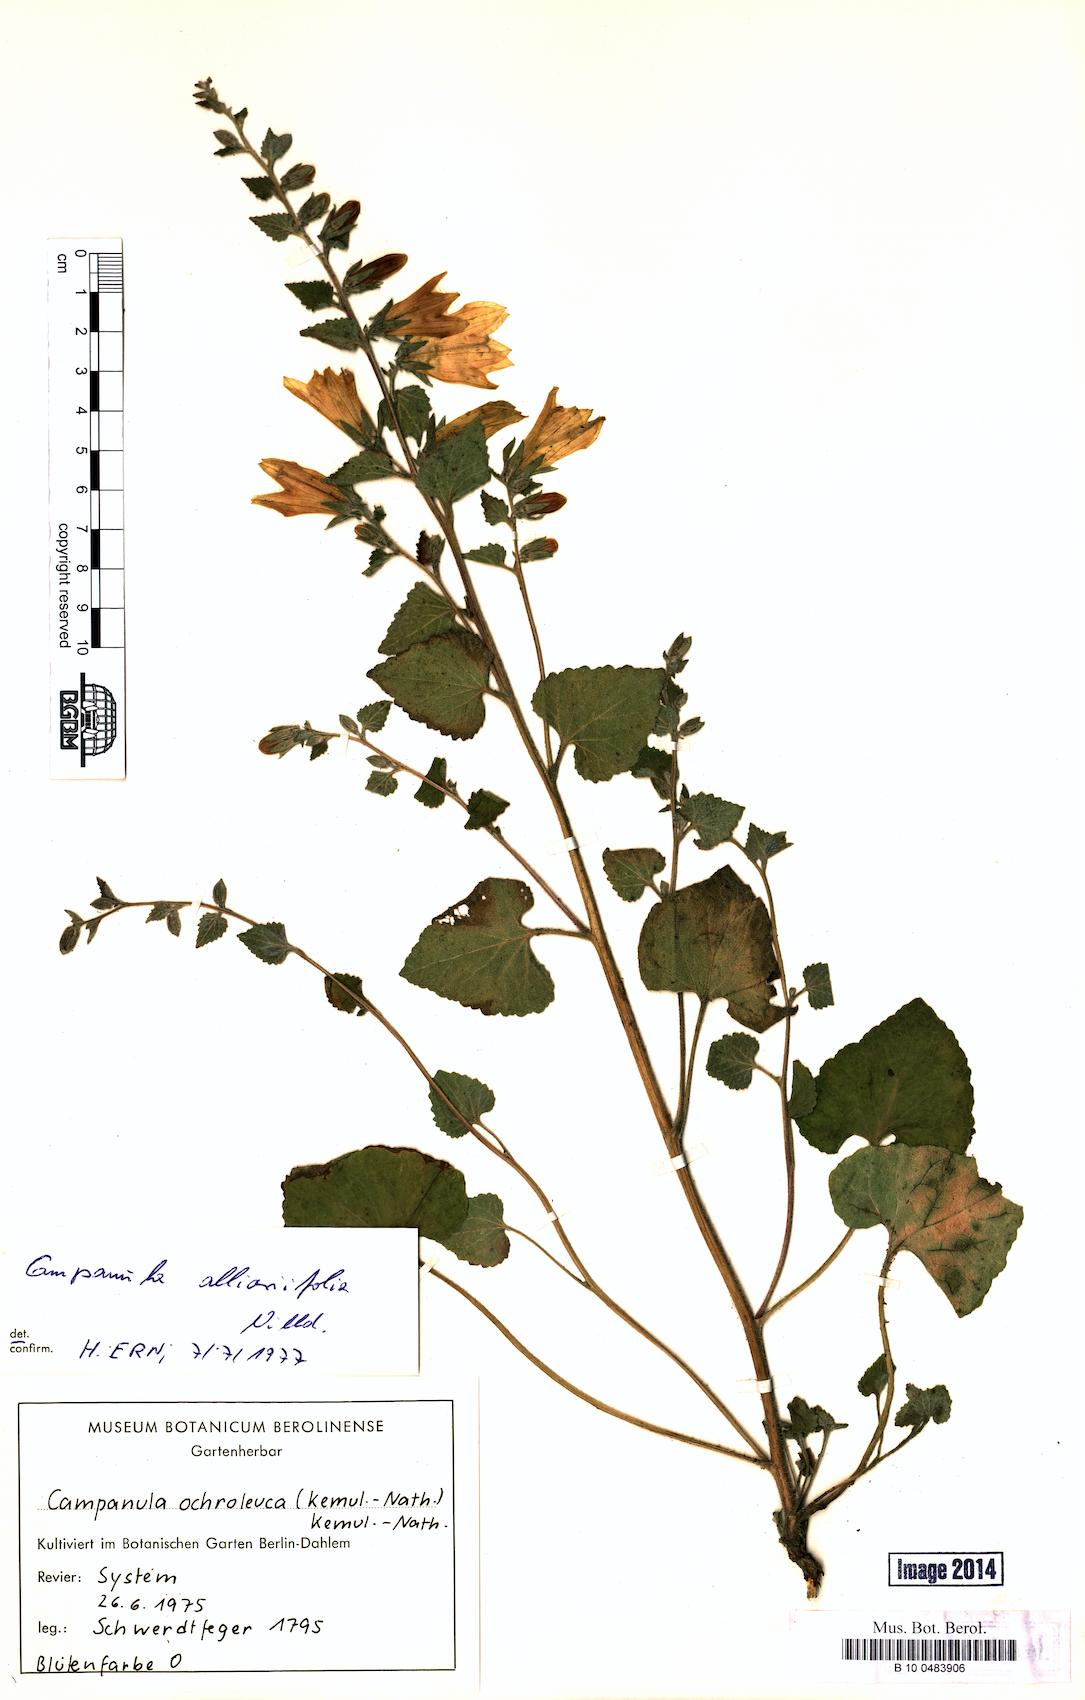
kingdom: Plantae
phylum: Tracheophyta
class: Magnoliopsida
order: Asterales
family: Campanulaceae
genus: Campanula
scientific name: Campanula alliariifolia
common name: Cornish bellflower
